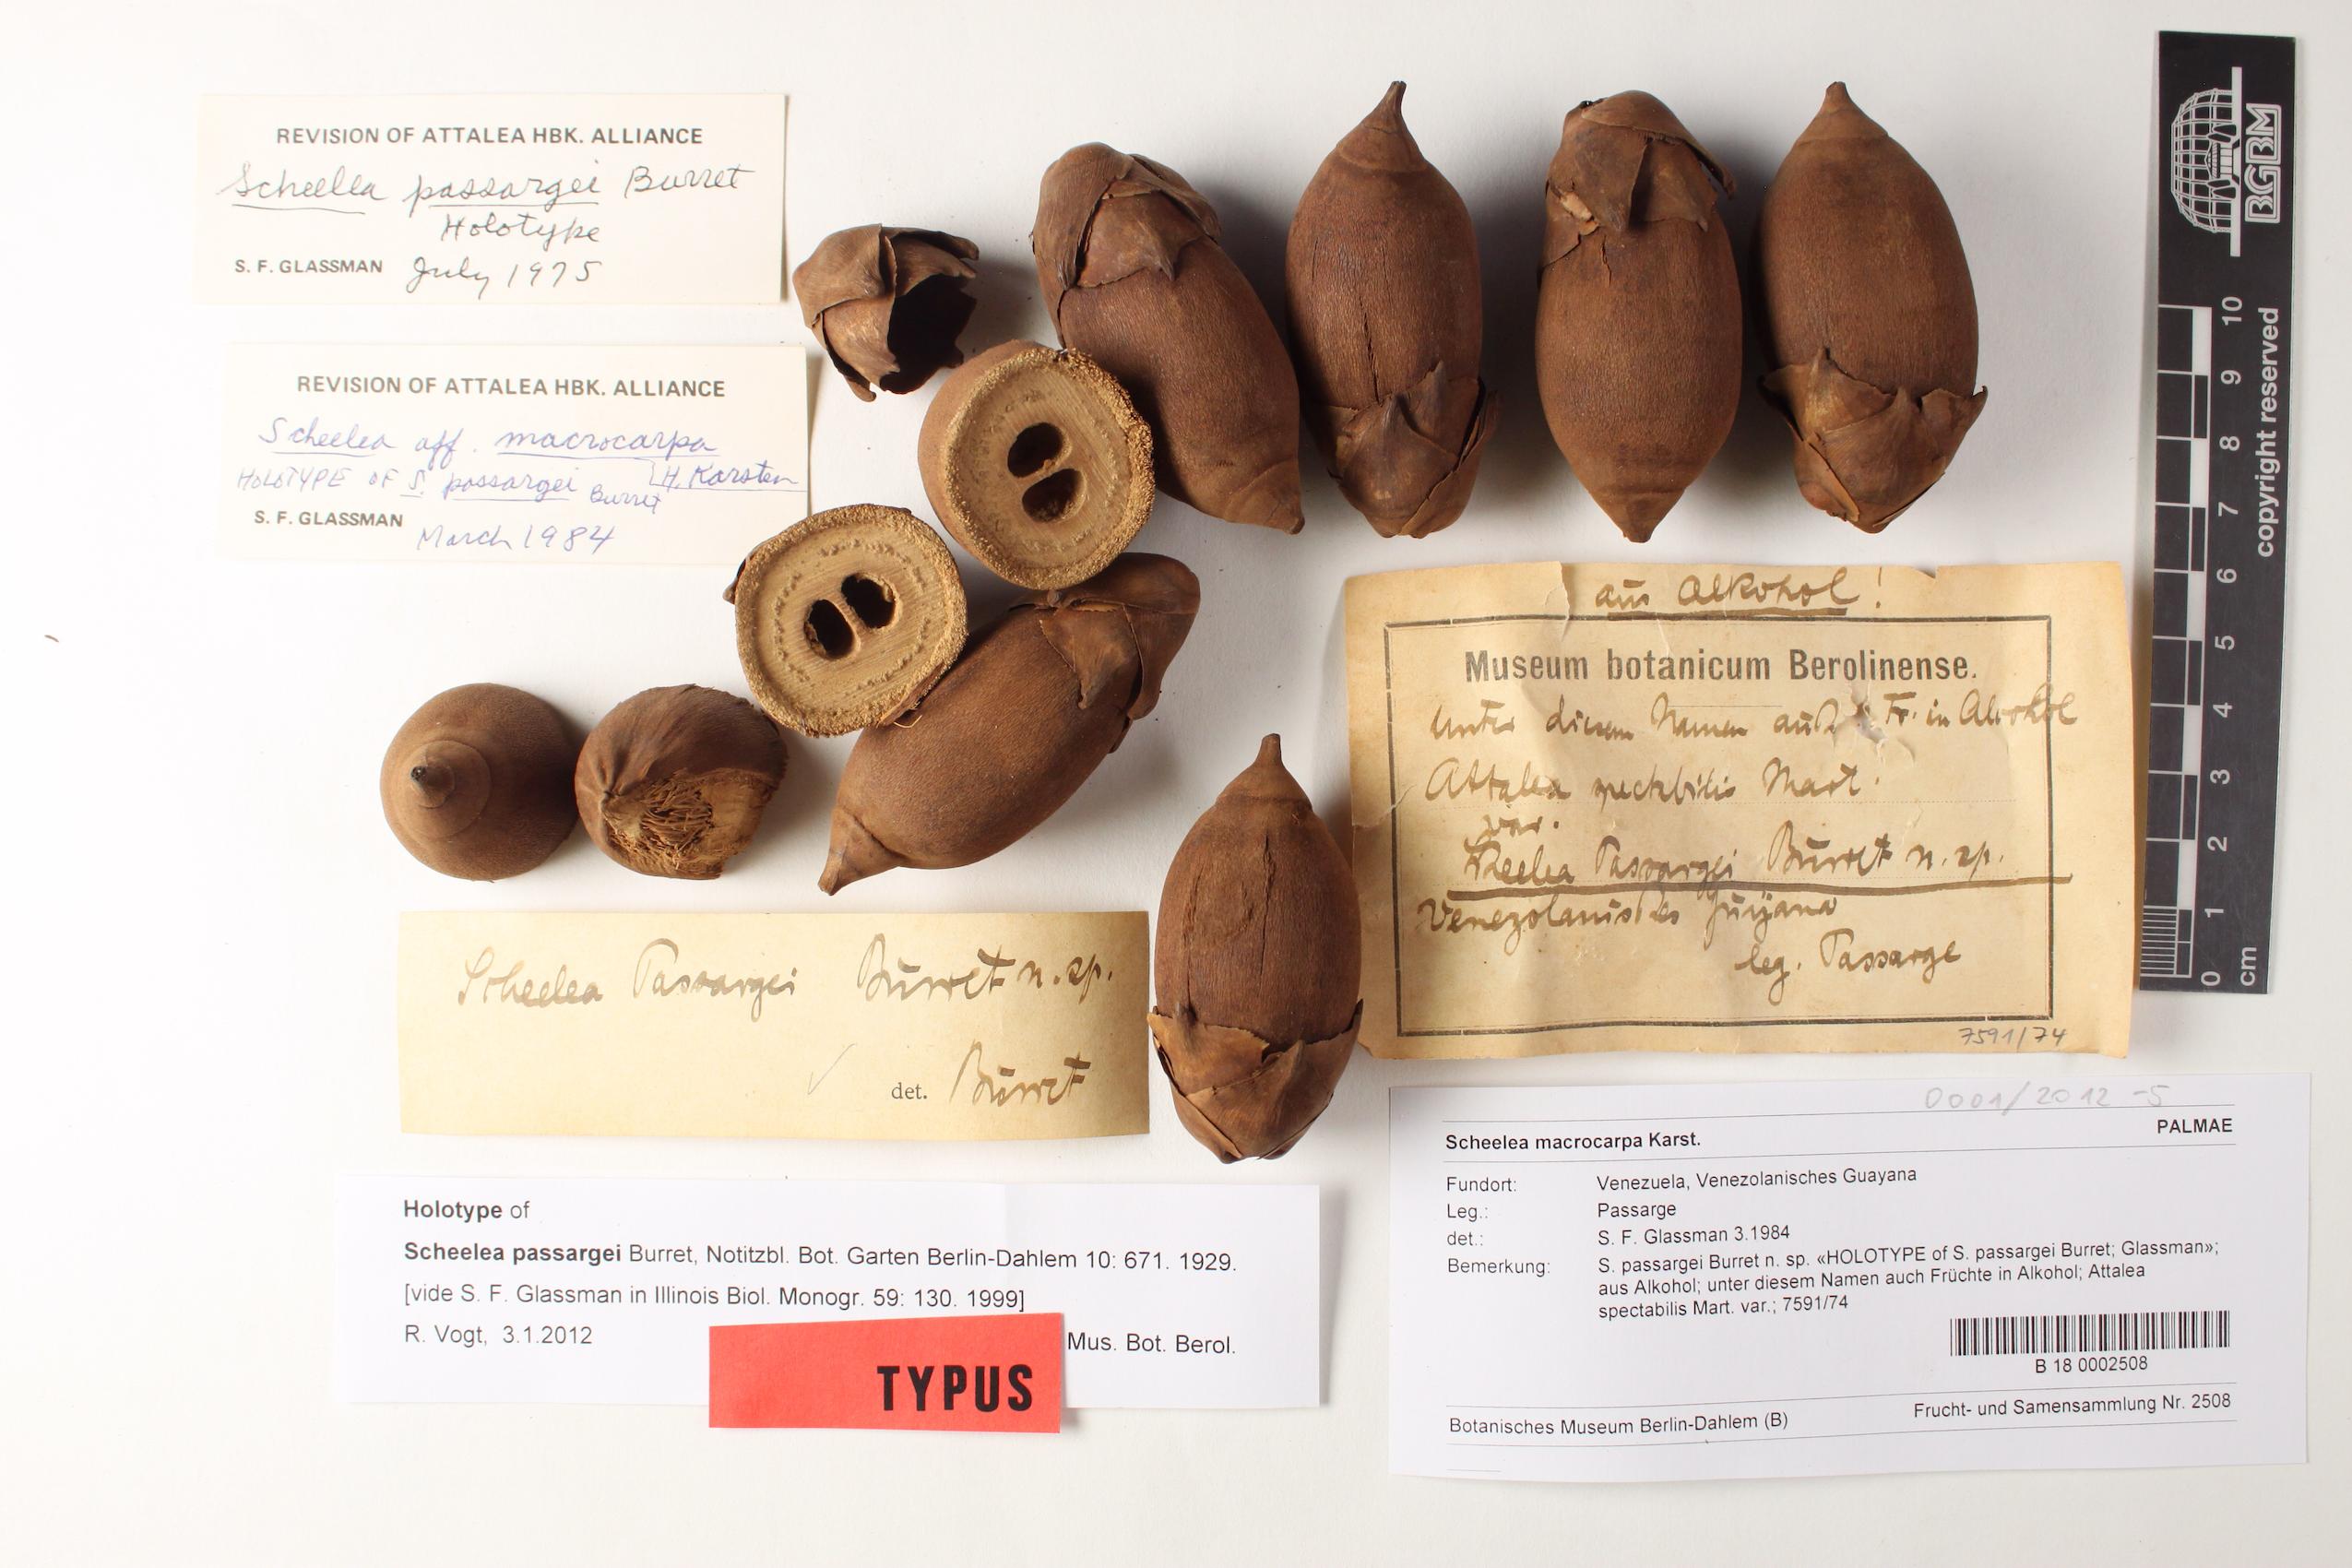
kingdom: Plantae
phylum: Tracheophyta
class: Liliopsida
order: Arecales
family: Arecaceae
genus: Attalea
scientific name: Attalea butyracea
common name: Kuakish
